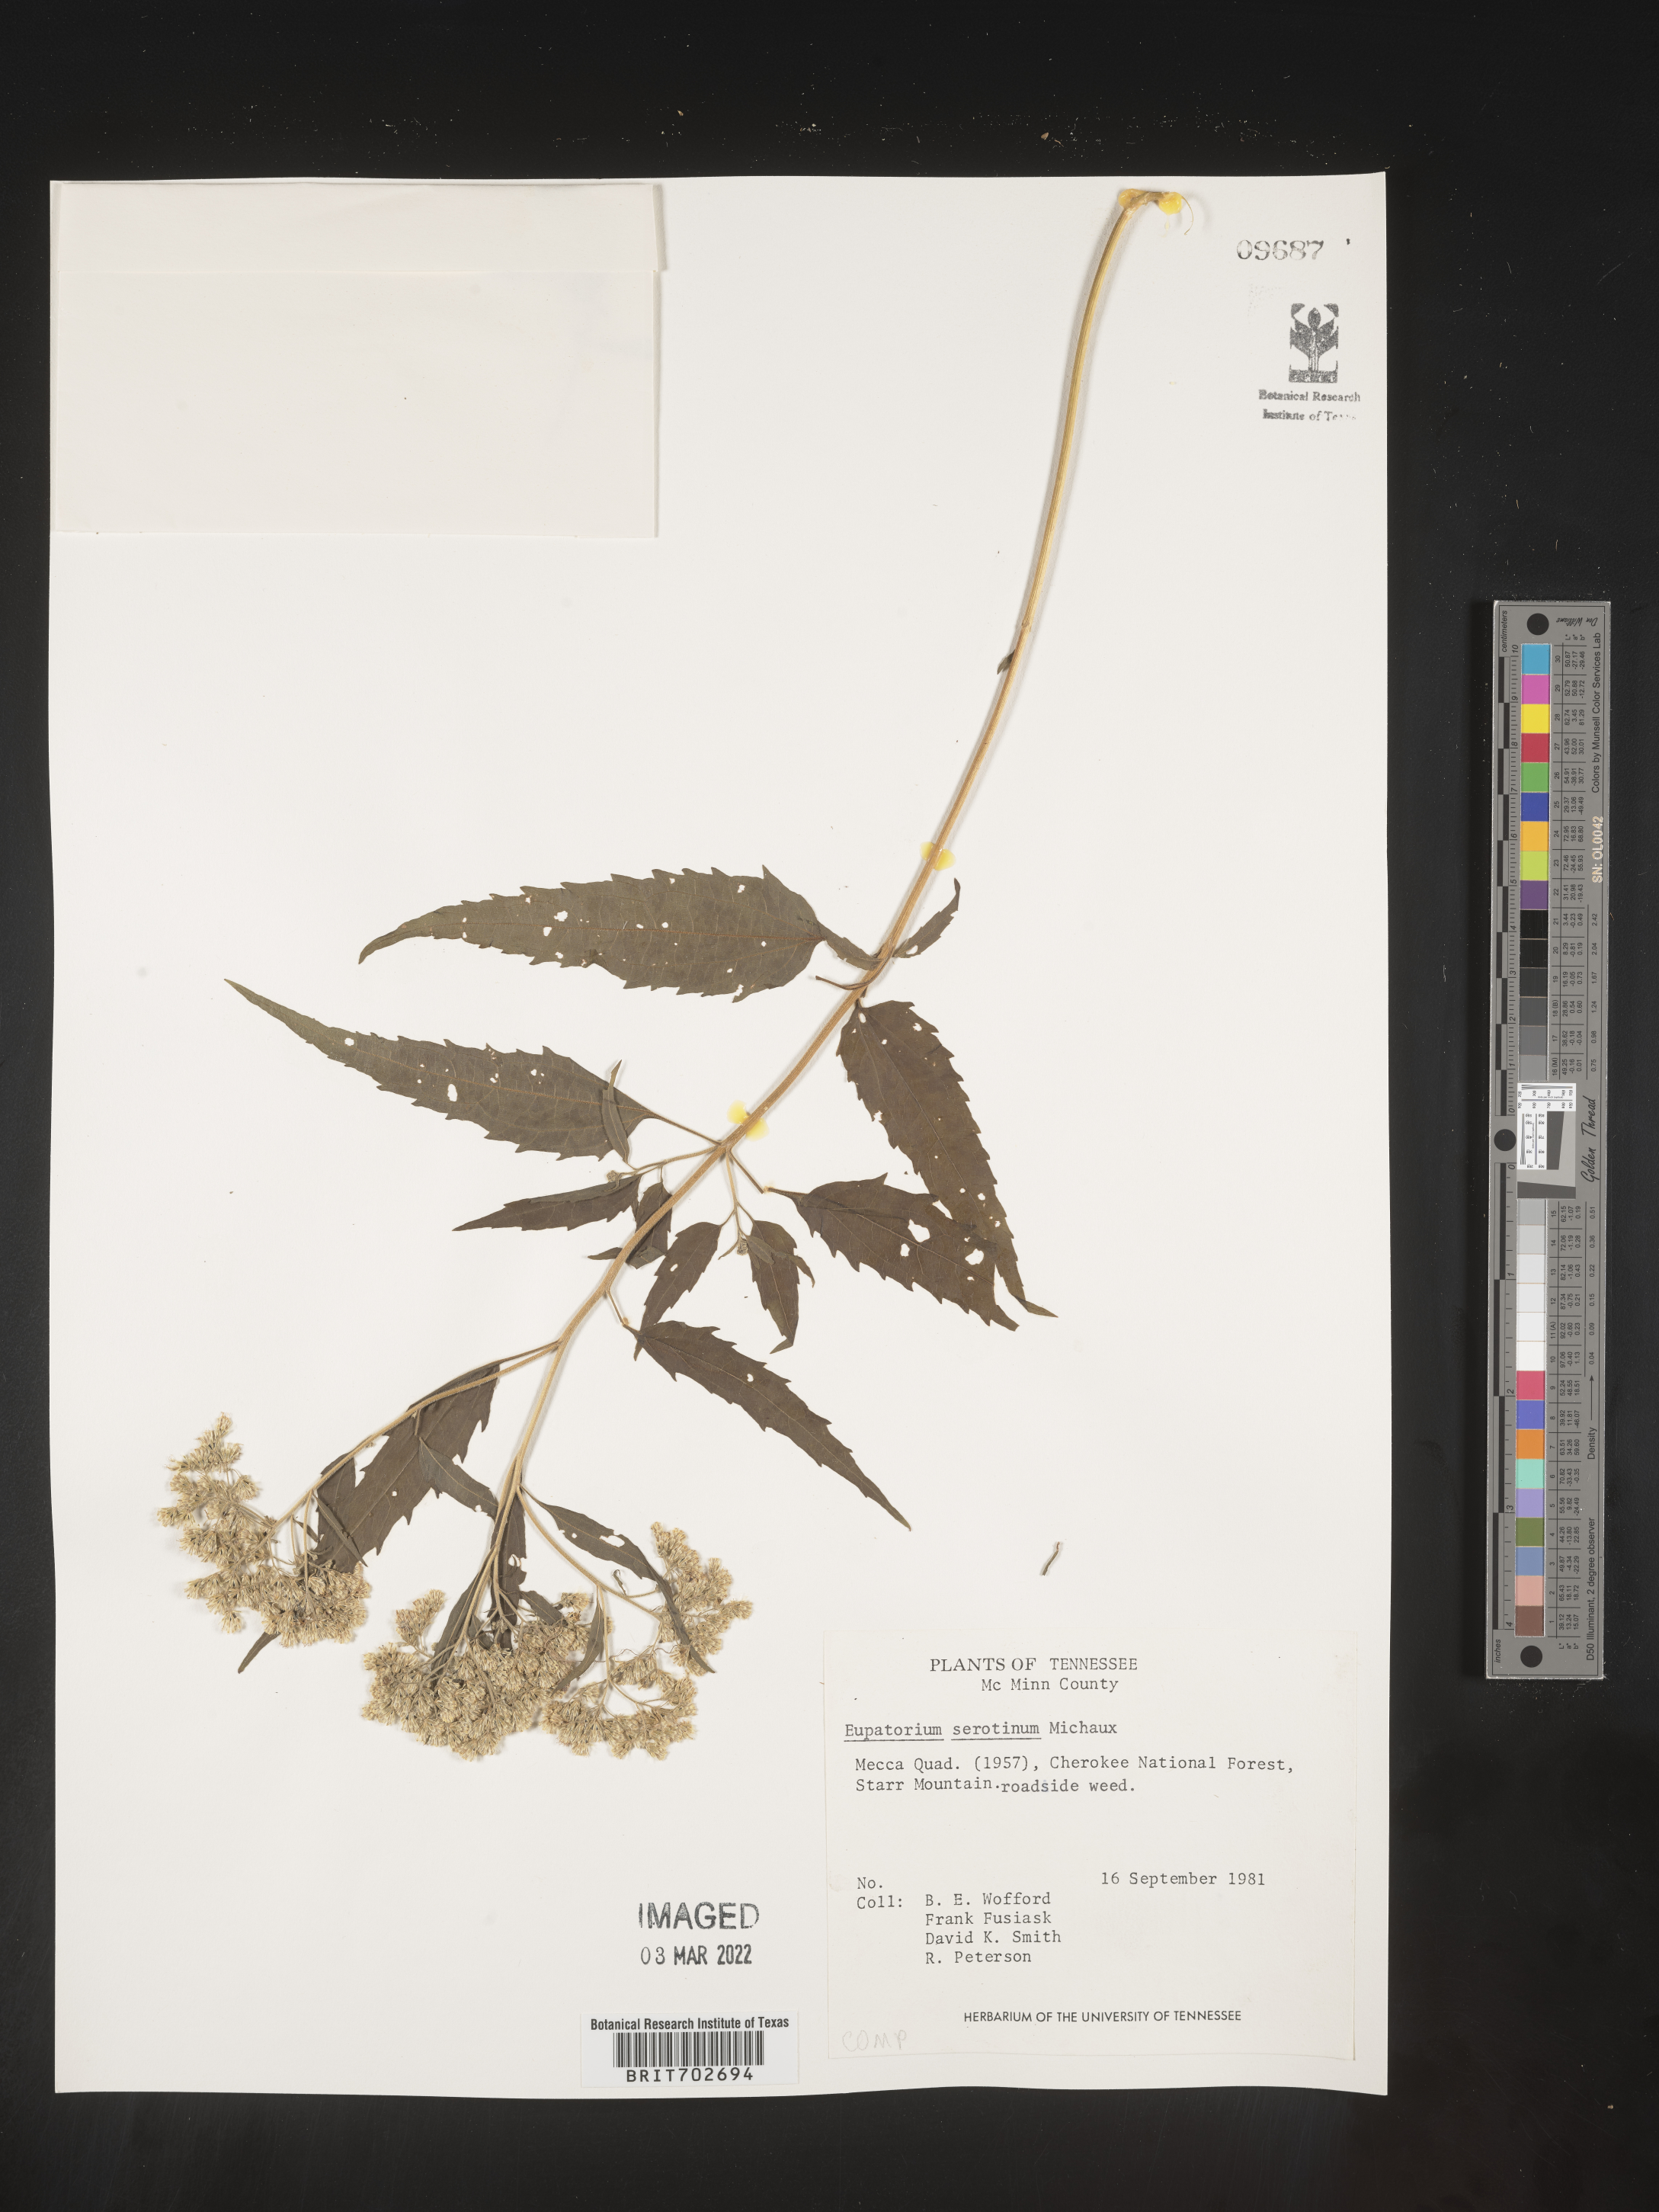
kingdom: Plantae
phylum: Tracheophyta
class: Magnoliopsida
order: Asterales
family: Asteraceae
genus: Eupatorium
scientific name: Eupatorium serotinum
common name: Late boneset
